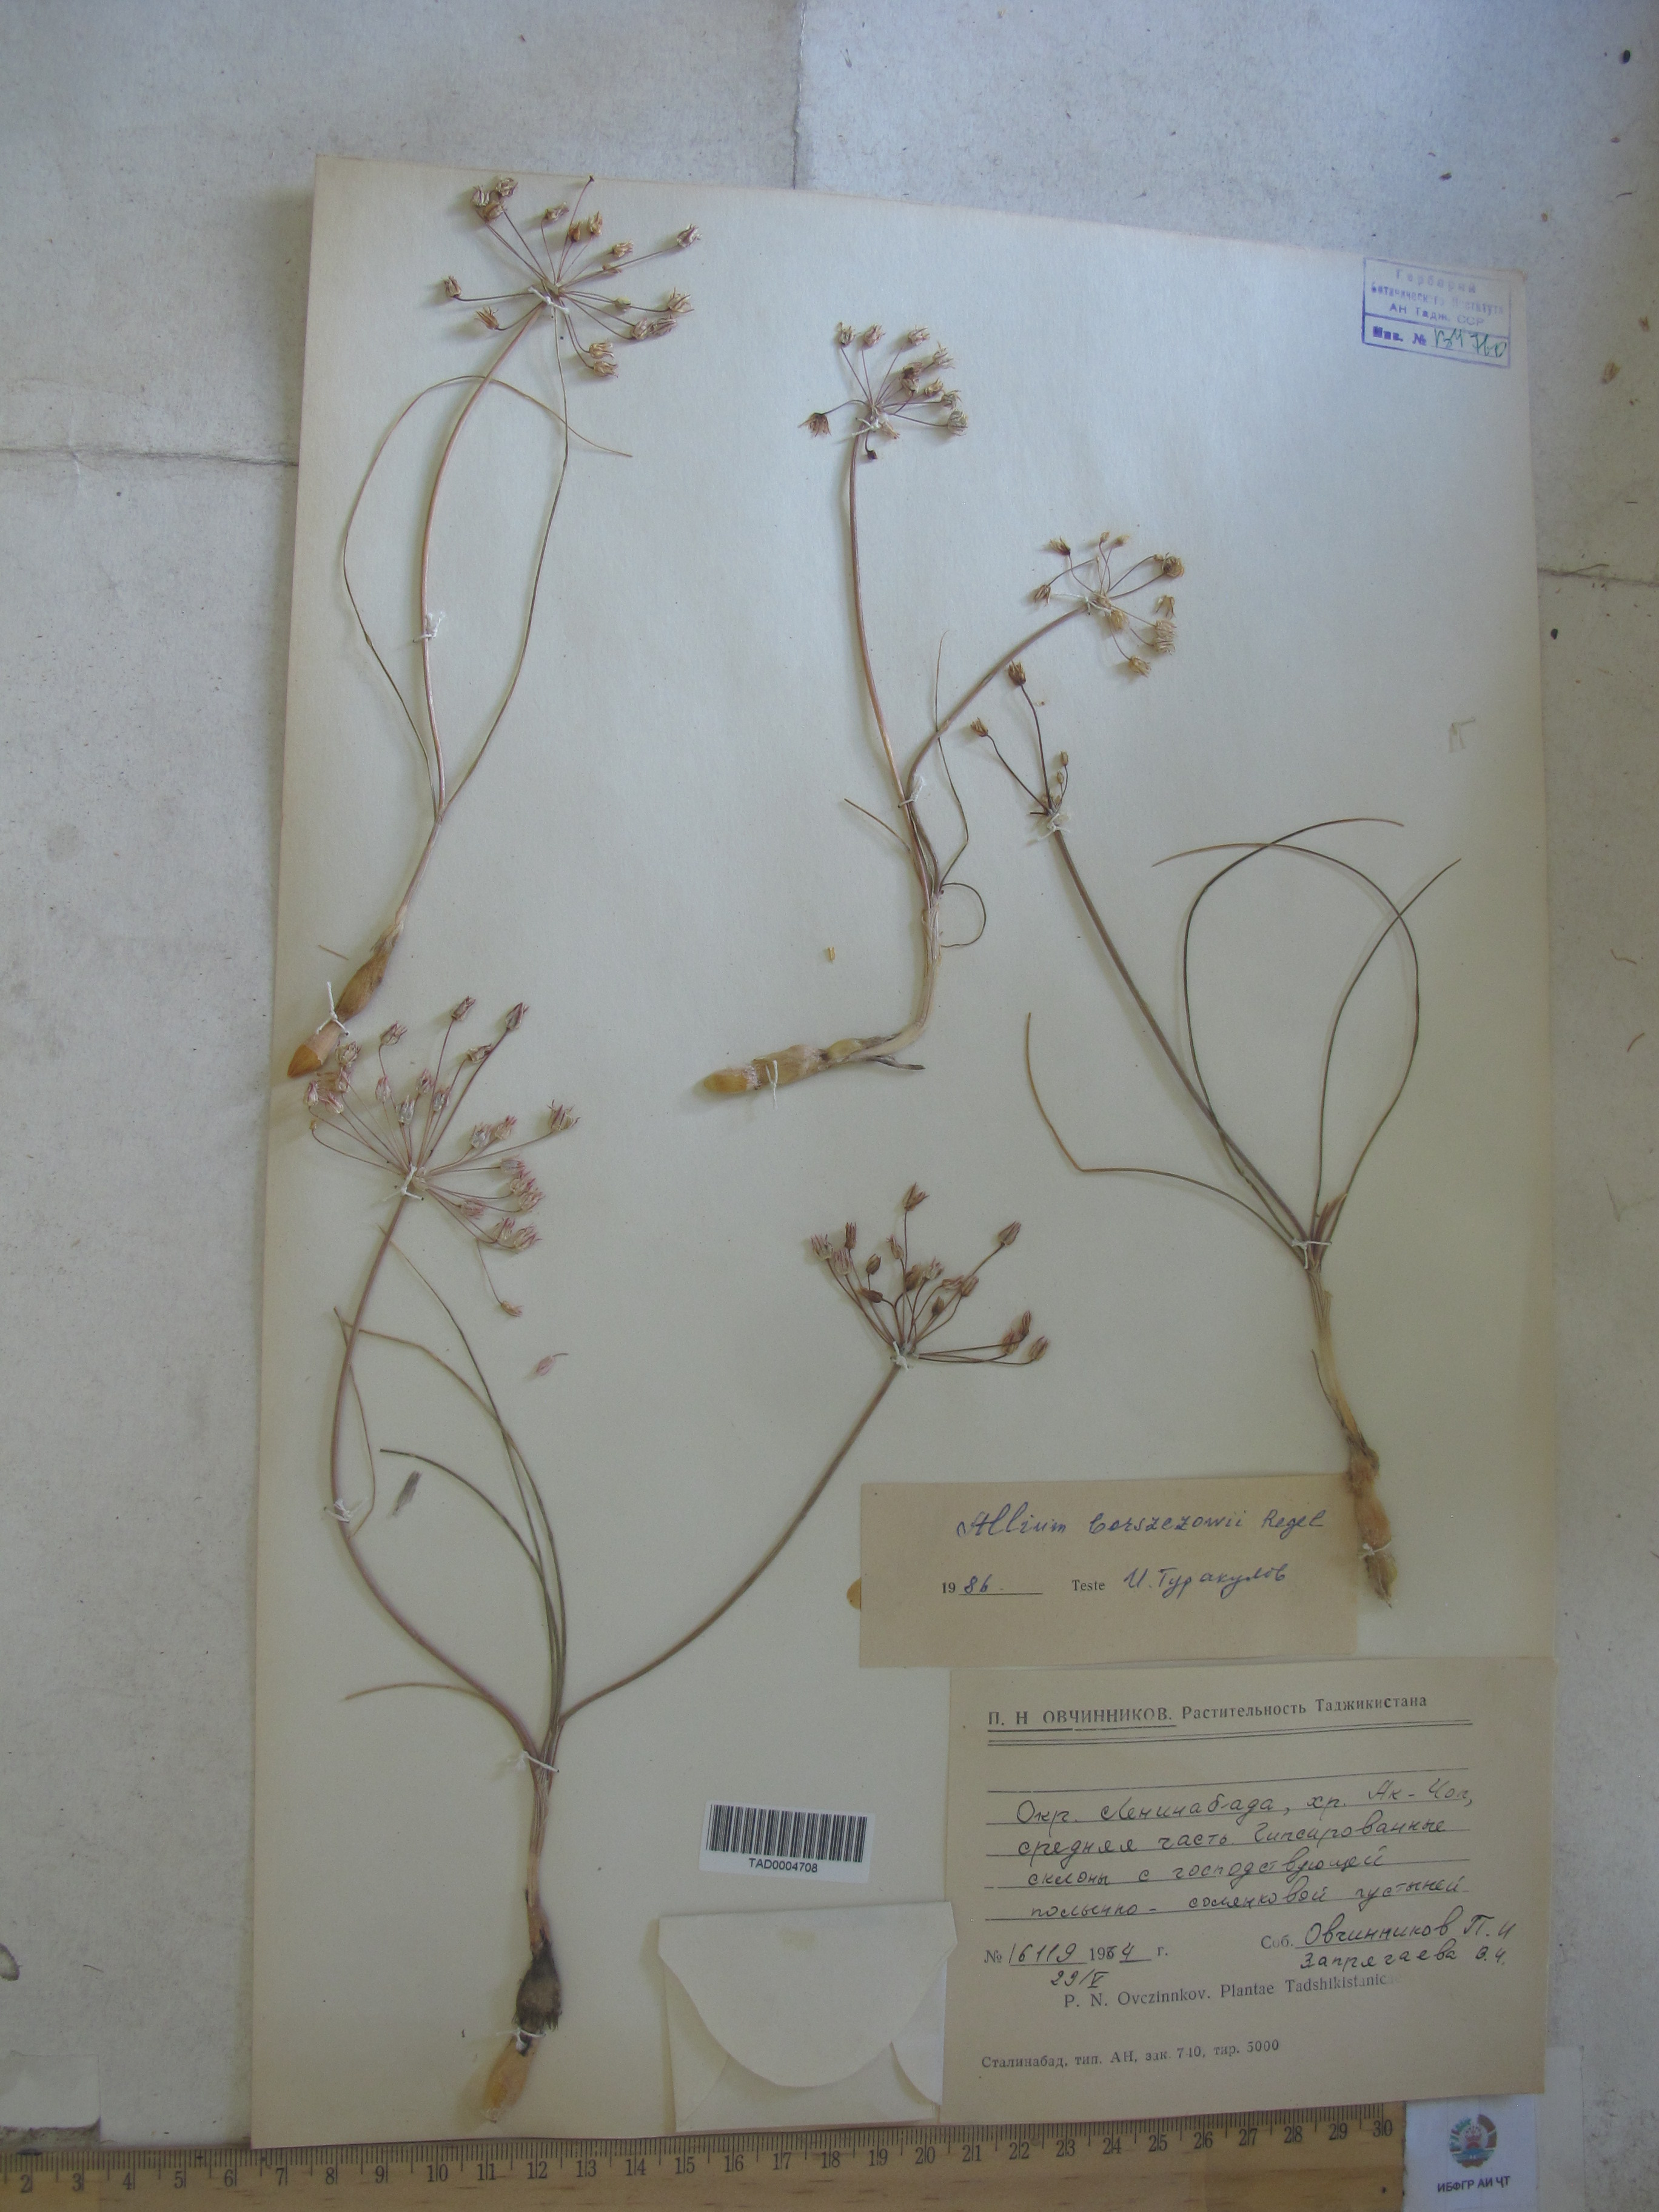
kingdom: Plantae
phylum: Tracheophyta
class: Liliopsida
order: Asparagales
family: Amaryllidaceae
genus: Allium
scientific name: Allium borszczowii
